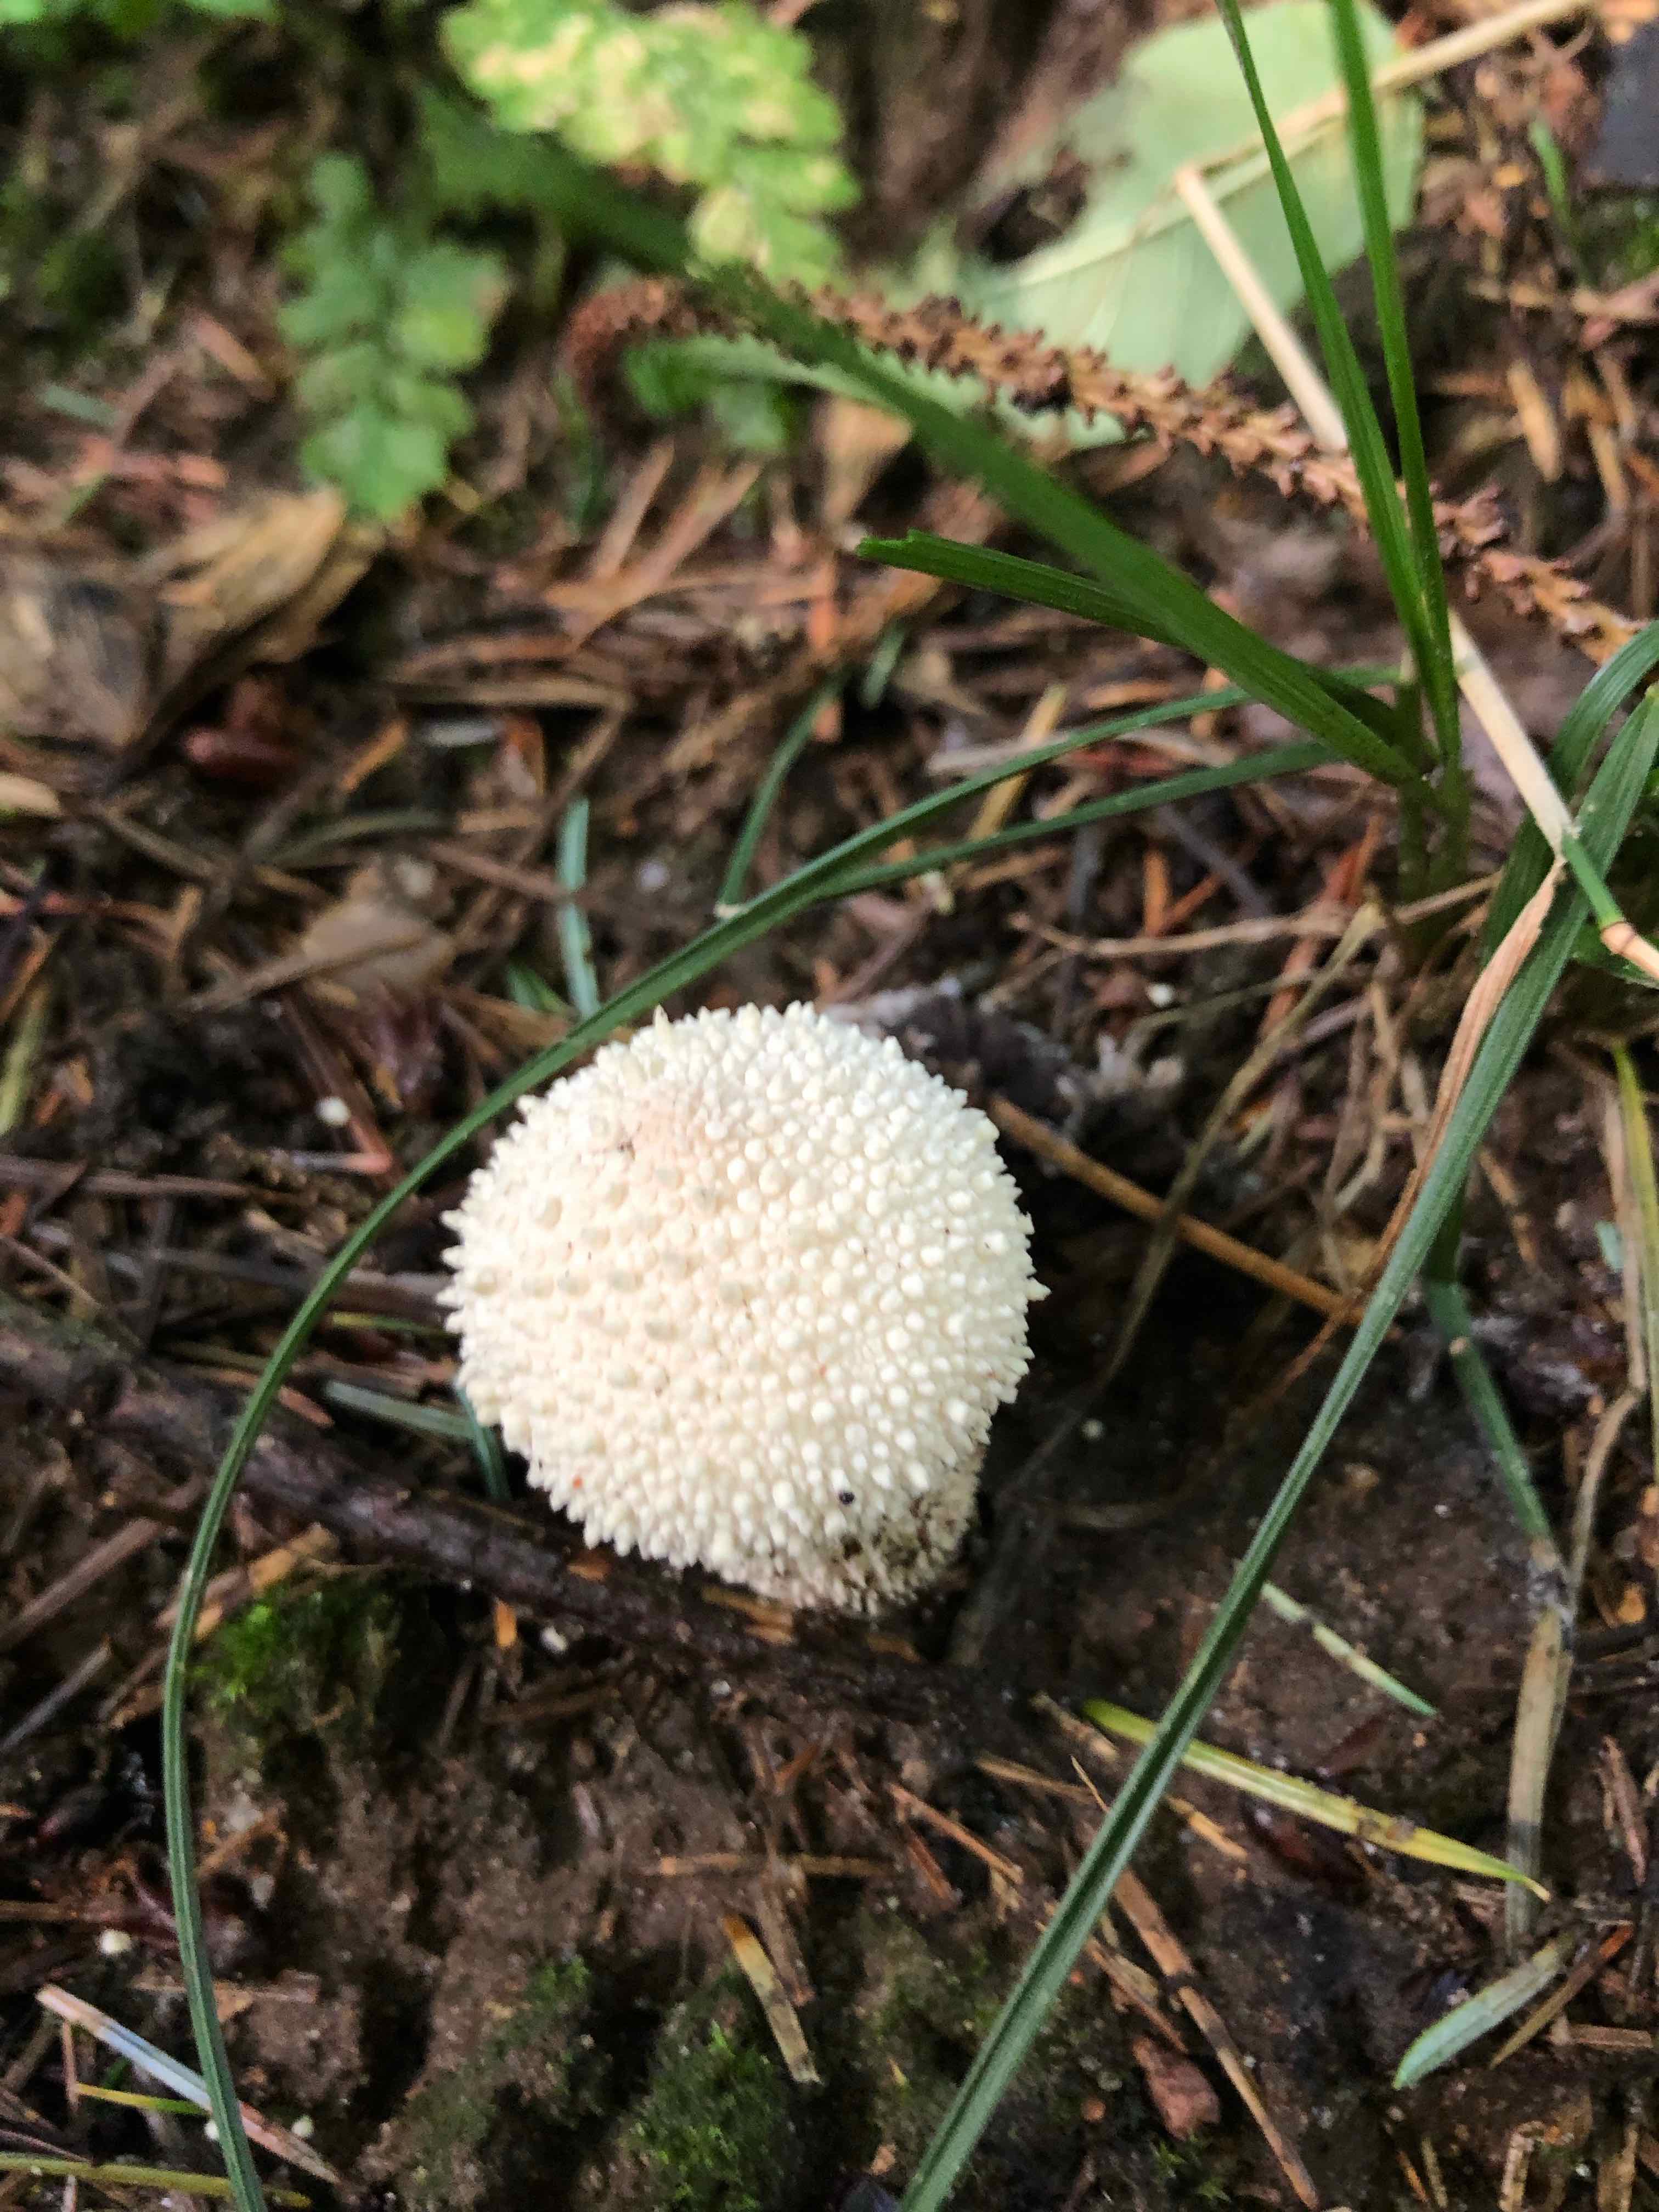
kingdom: Fungi
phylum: Basidiomycota
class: Agaricomycetes
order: Agaricales
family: Lycoperdaceae
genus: Lycoperdon
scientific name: Lycoperdon perlatum
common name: krystal-støvbold
